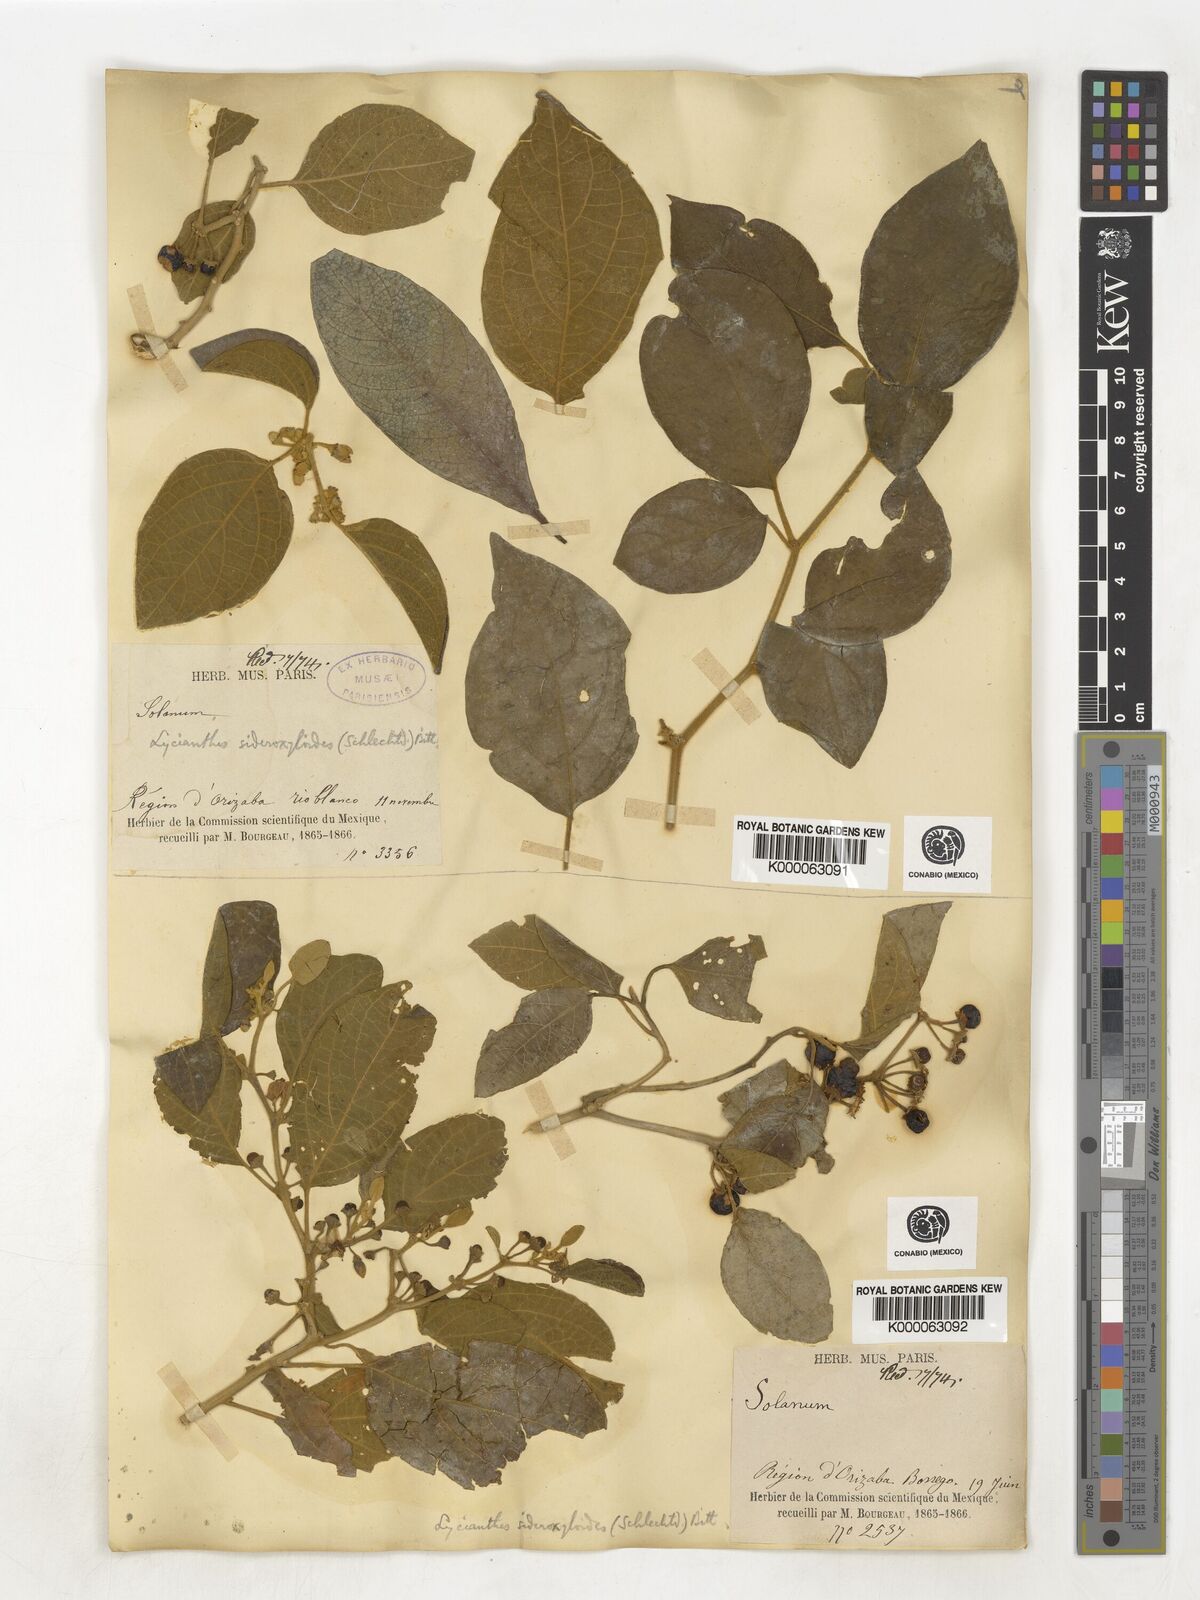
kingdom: Plantae
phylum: Tracheophyta
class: Magnoliopsida
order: Solanales
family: Solanaceae
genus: Lycianthes
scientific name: Lycianthes sideroxyloides
